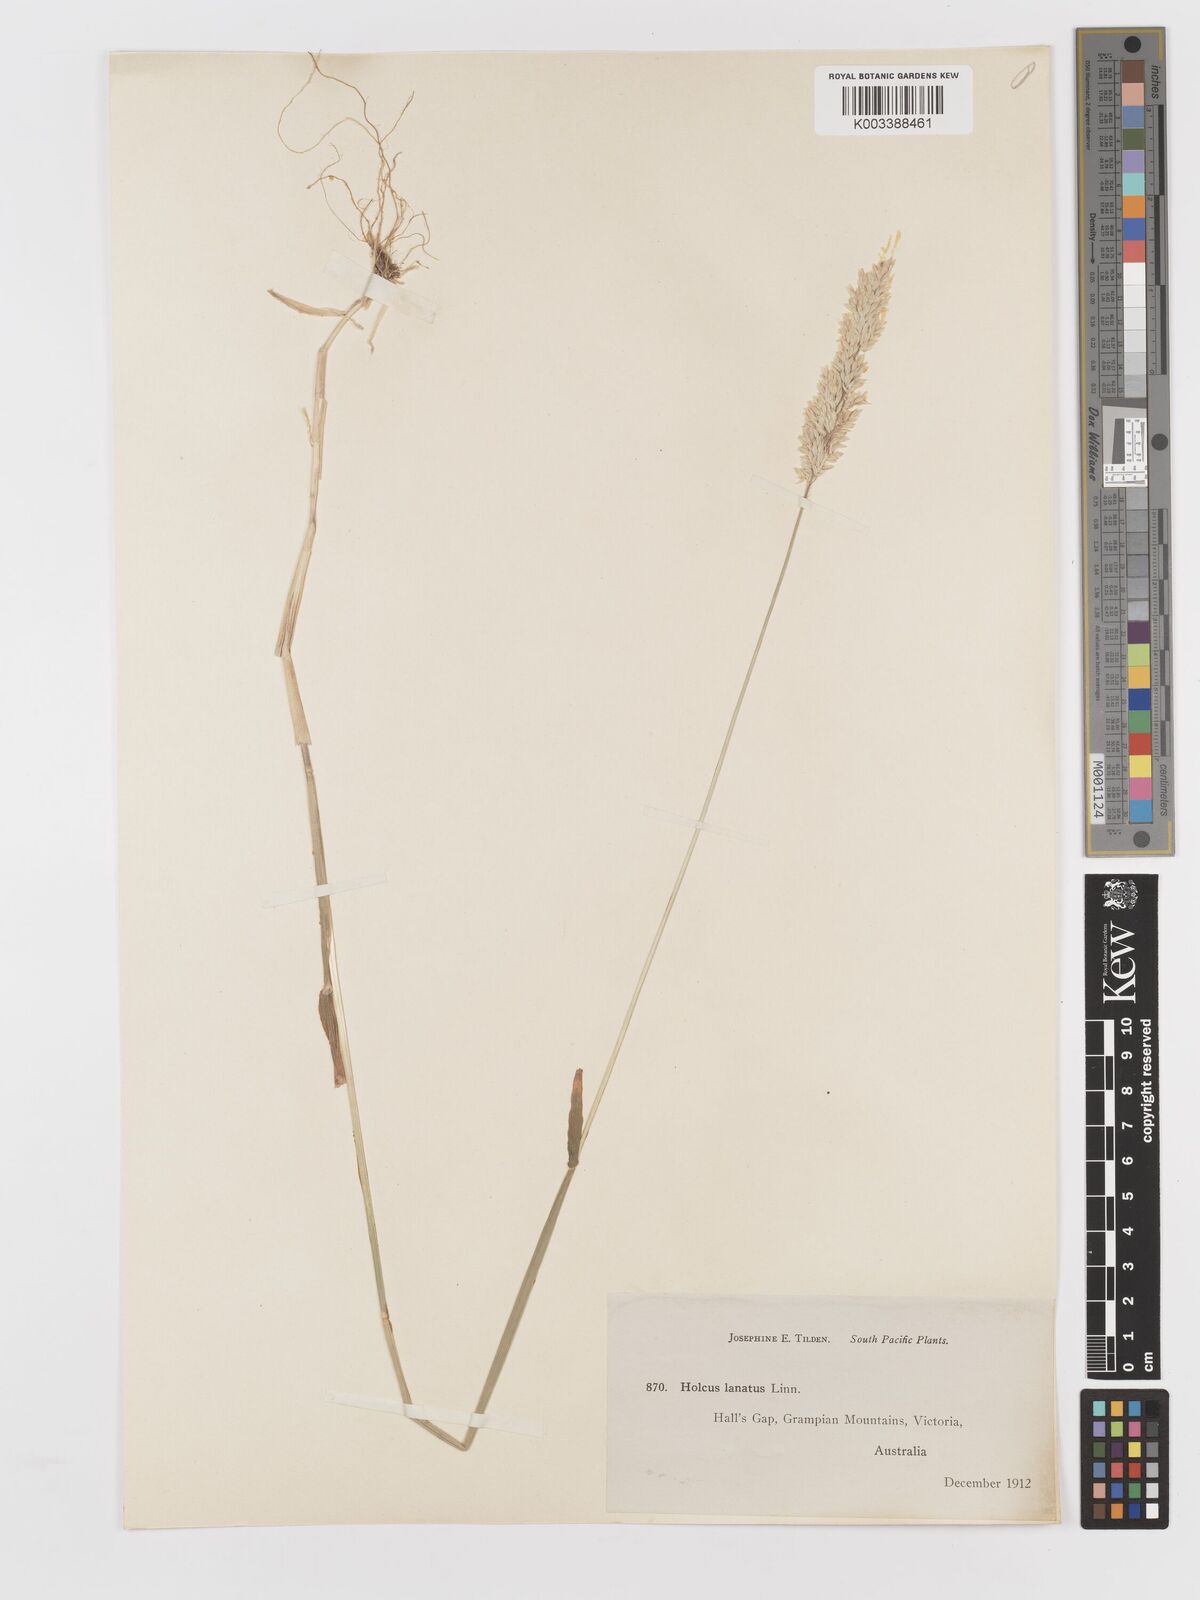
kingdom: Plantae
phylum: Tracheophyta
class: Liliopsida
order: Poales
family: Poaceae
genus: Holcus
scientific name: Holcus lanatus
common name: Yorkshire-fog
